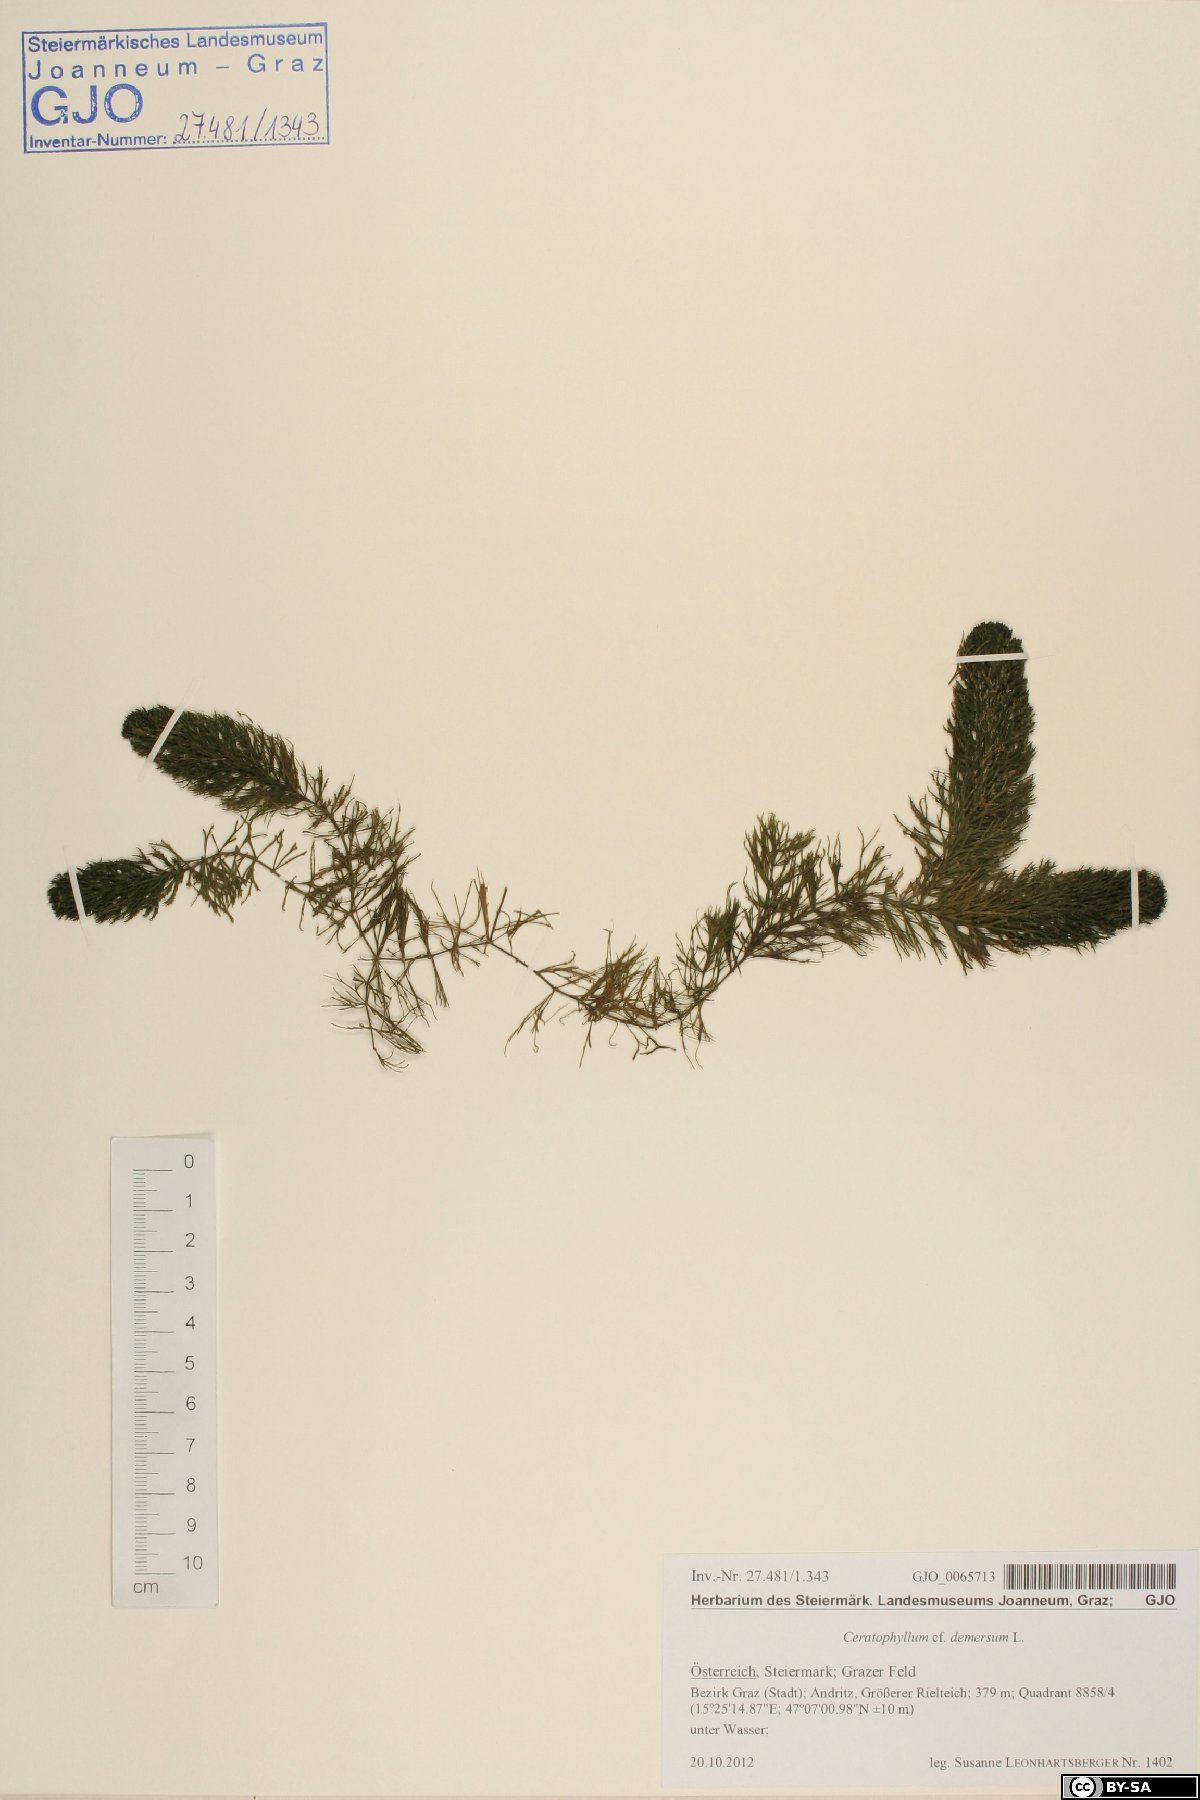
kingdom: Plantae
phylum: Tracheophyta
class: Magnoliopsida
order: Ceratophyllales
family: Ceratophyllaceae
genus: Ceratophyllum
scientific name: Ceratophyllum demersum
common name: Rigid hornwort
